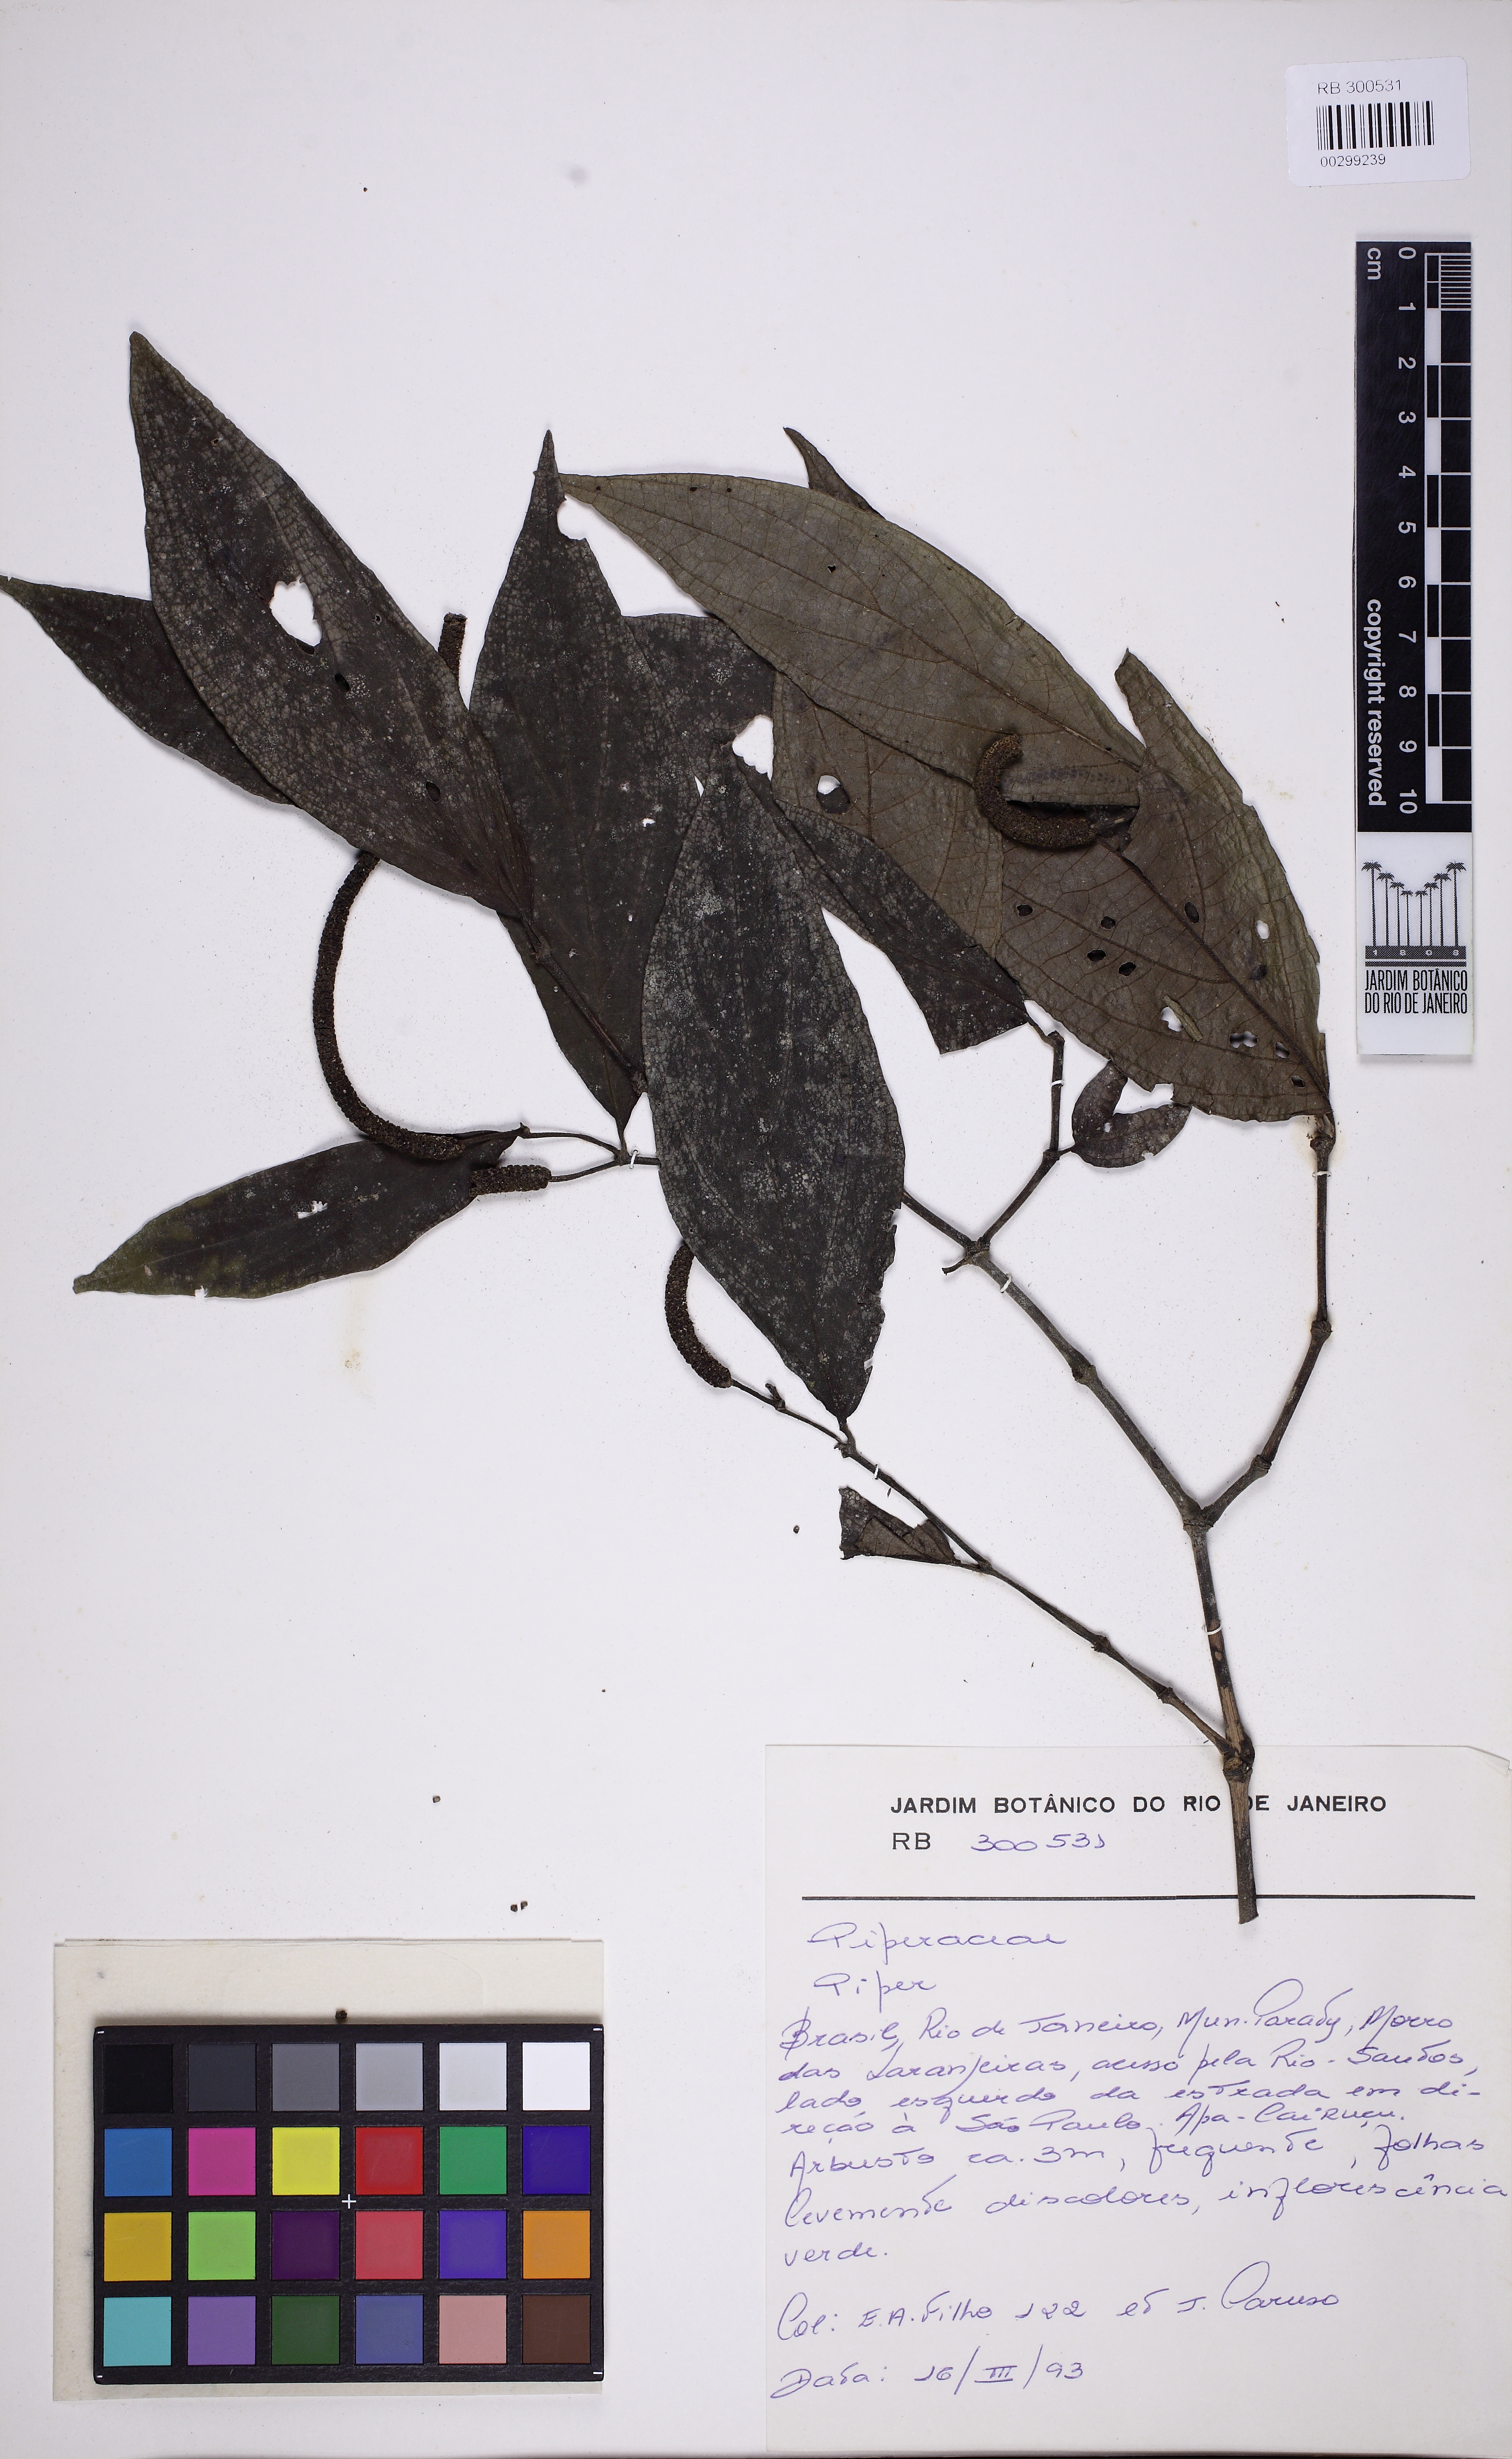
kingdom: Plantae
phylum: Tracheophyta
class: Magnoliopsida
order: Piperales
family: Piperaceae
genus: Piper
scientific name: Piper chimonanthifolium
